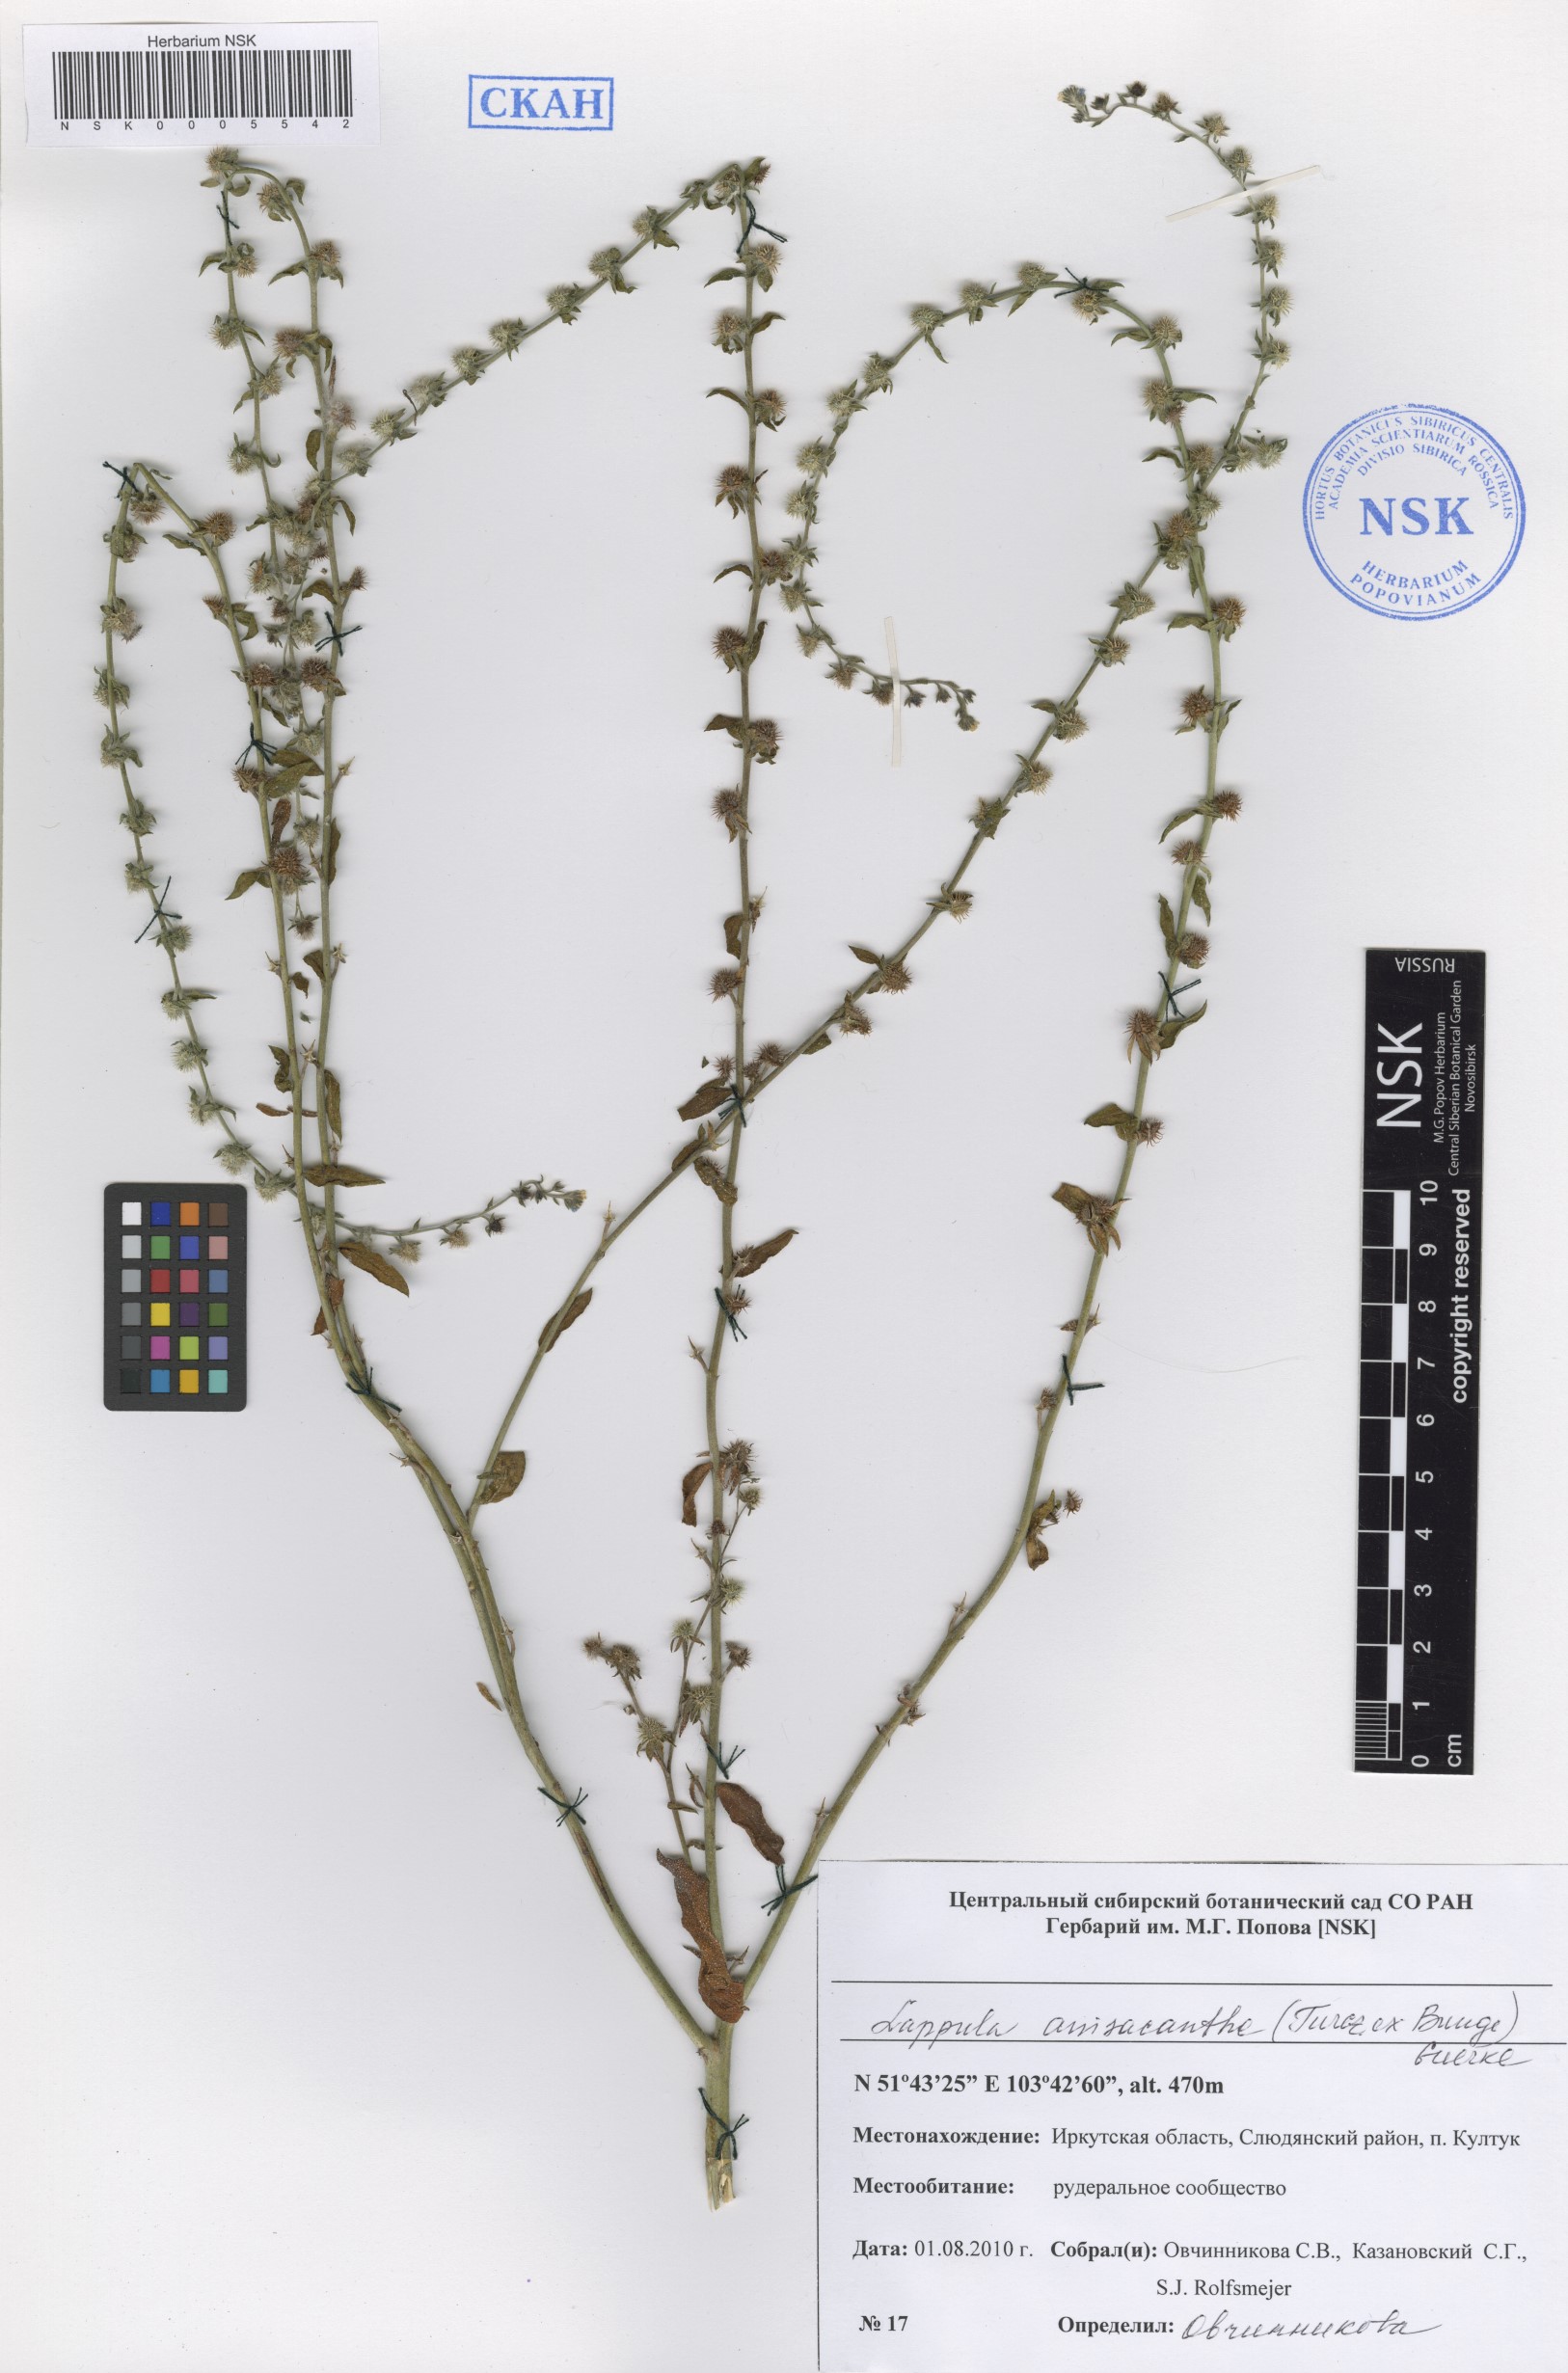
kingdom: Plantae
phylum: Tracheophyta
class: Magnoliopsida
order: Boraginales
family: Boraginaceae
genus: Lappula
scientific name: Lappula intermedia
